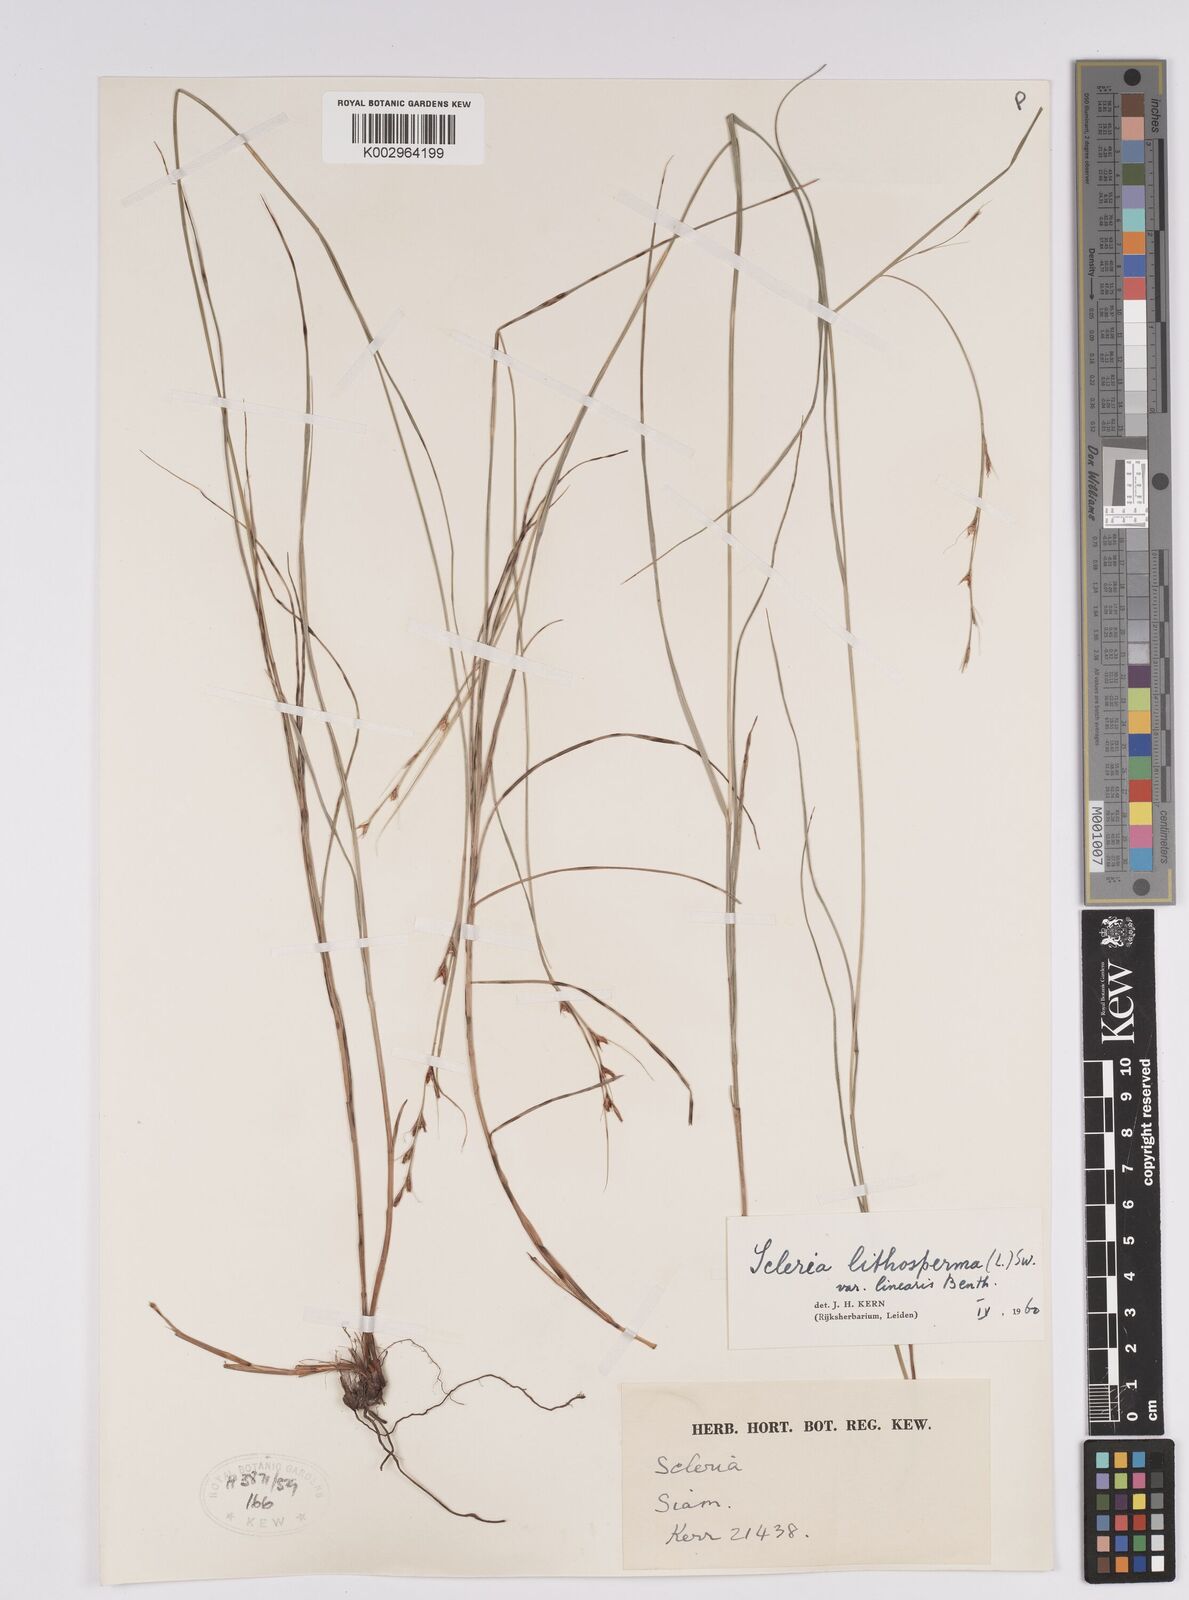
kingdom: Plantae
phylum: Tracheophyta
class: Liliopsida
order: Poales
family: Cyperaceae
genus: Scleria
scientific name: Scleria lithosperma
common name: Florida keys nut-rush
